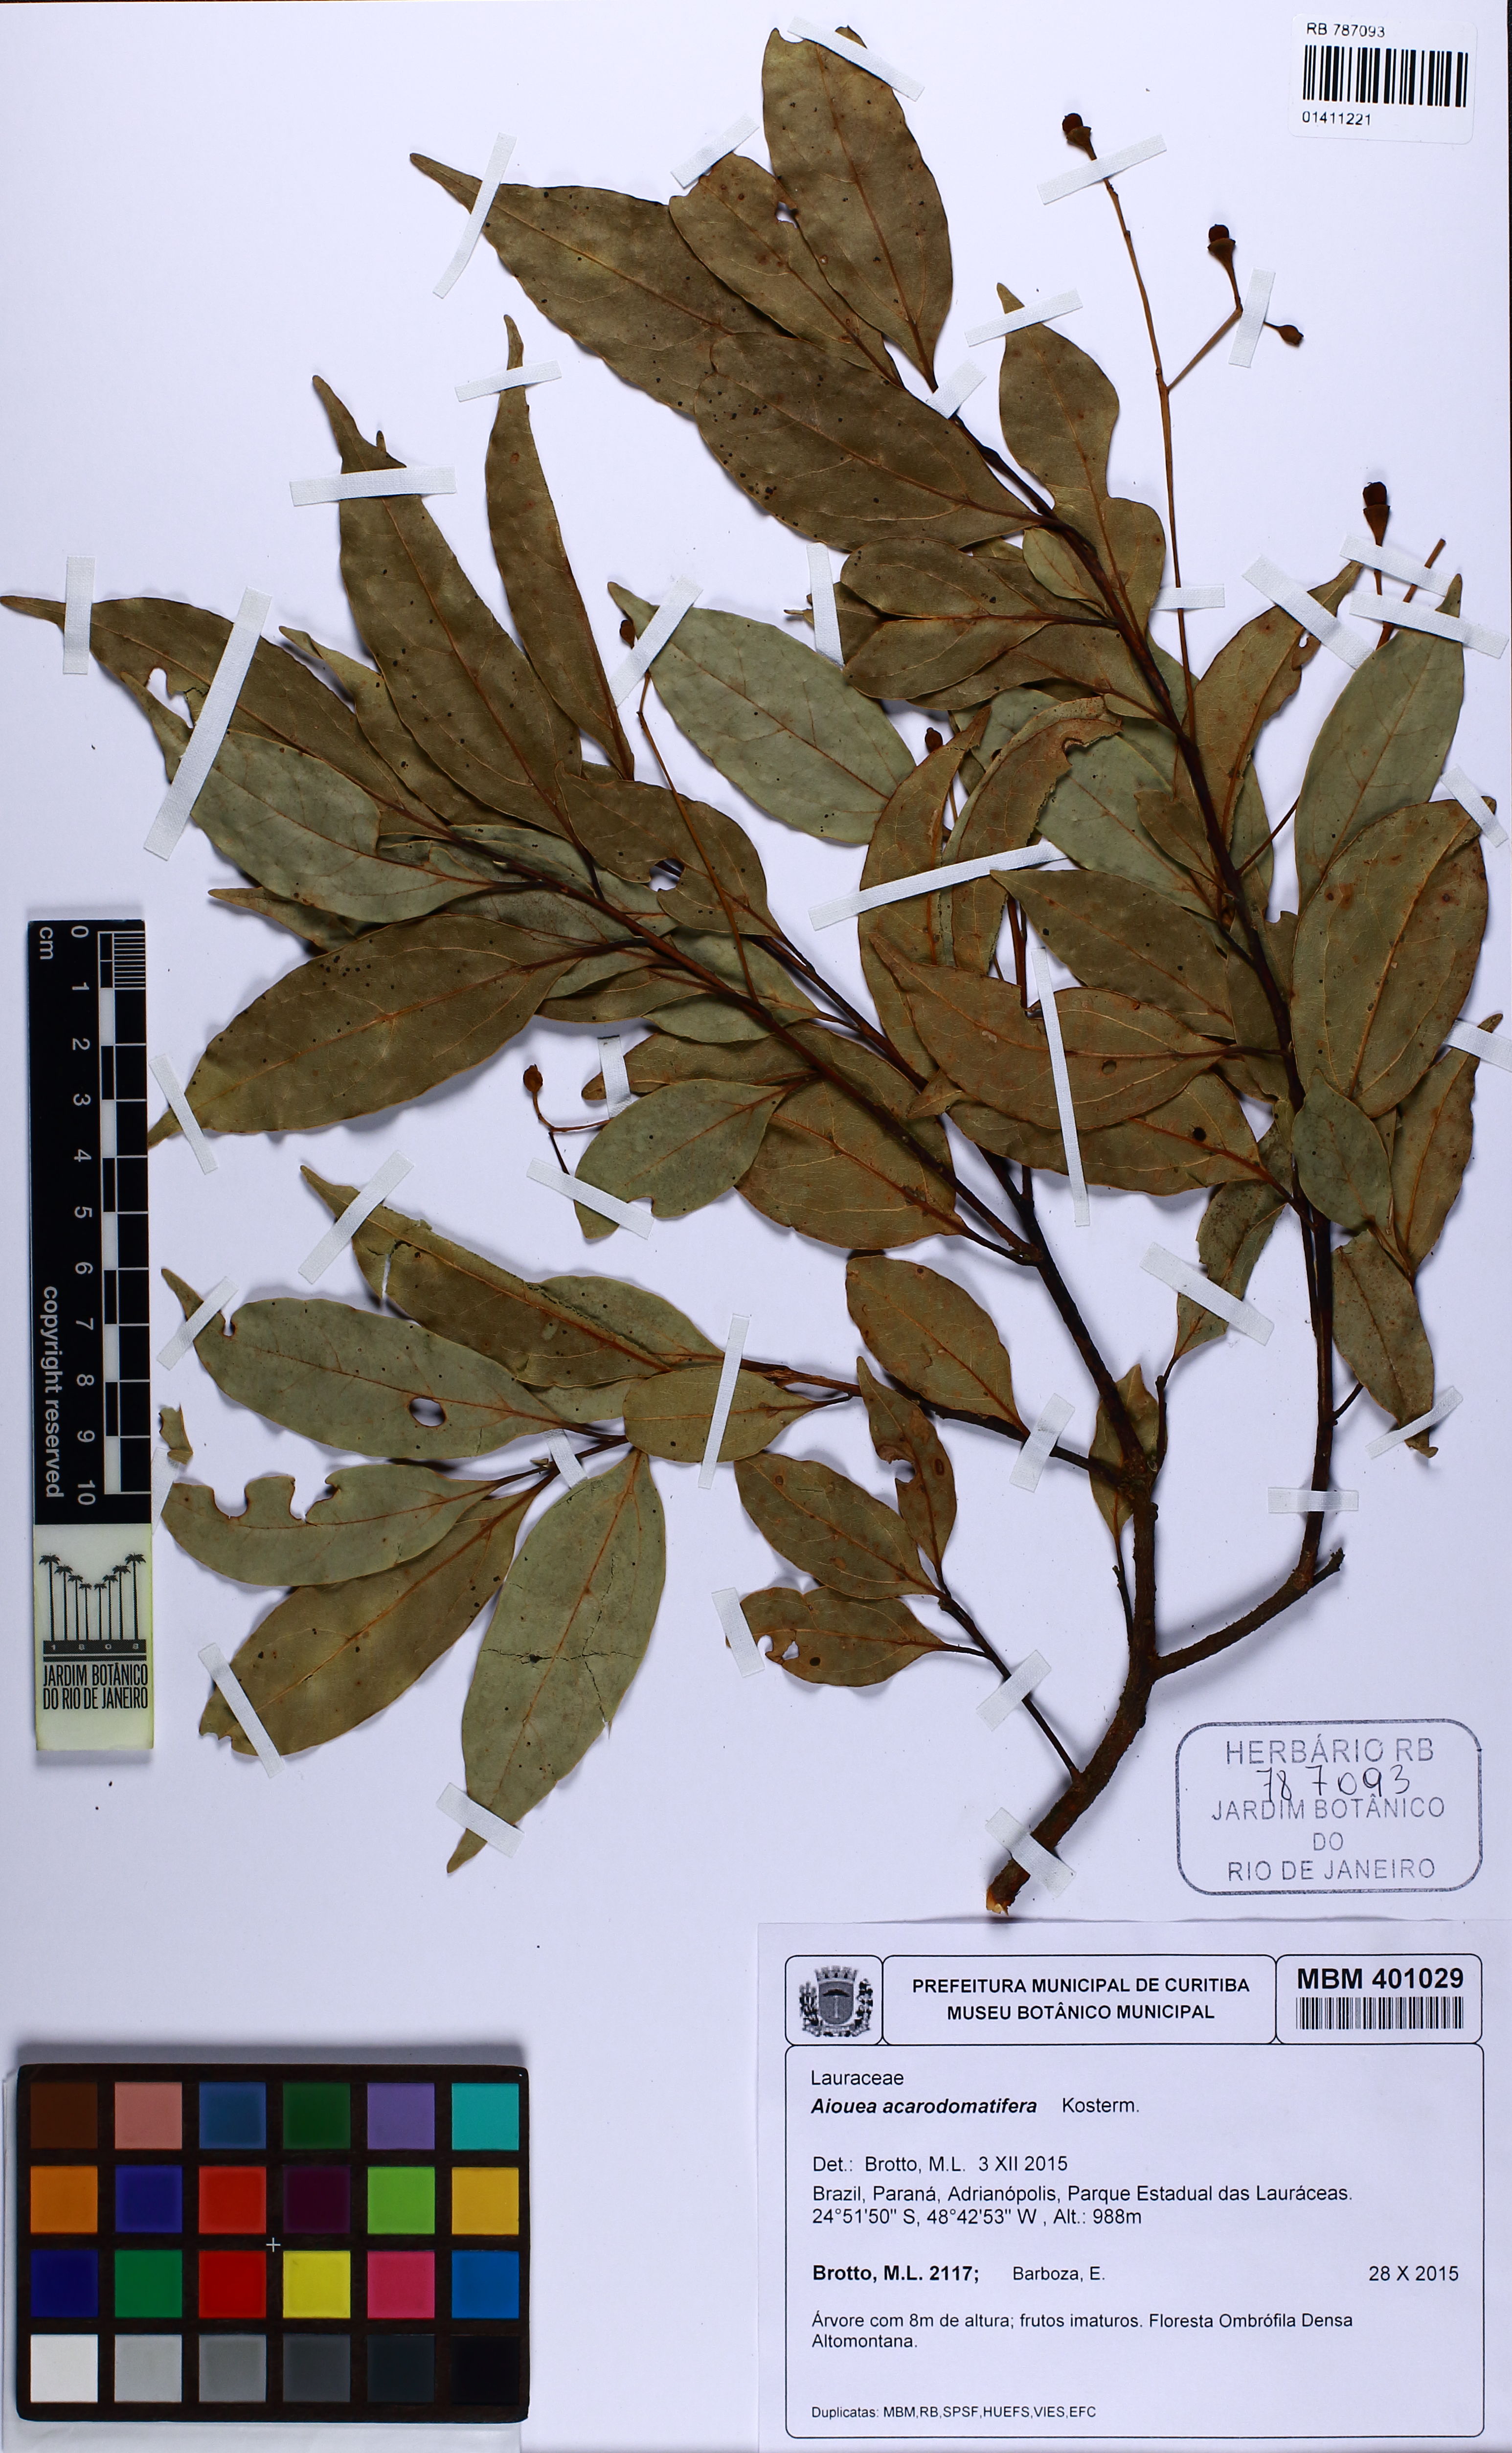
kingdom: Plantae
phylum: Tracheophyta
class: Magnoliopsida
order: Laurales
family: Lauraceae
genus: Aiouea
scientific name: Aiouea acarodomatifera
